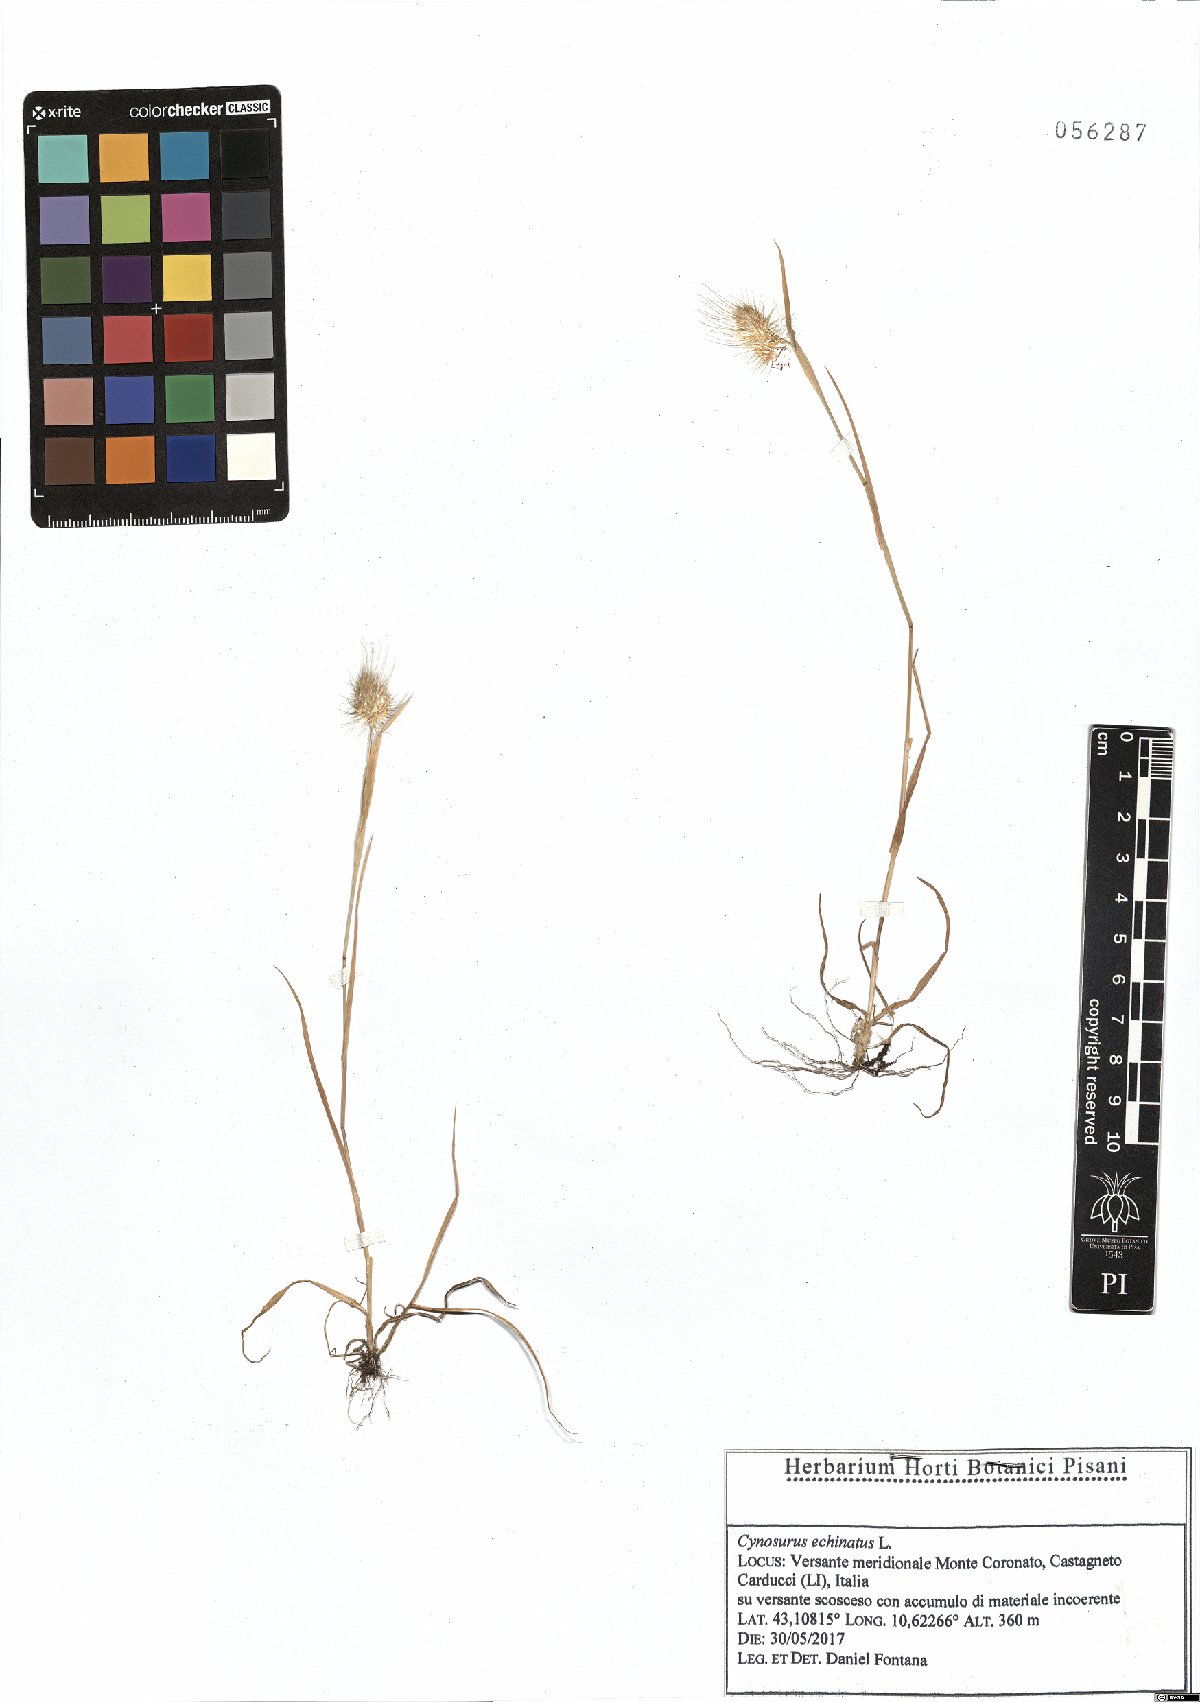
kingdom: Plantae
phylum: Tracheophyta
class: Liliopsida
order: Poales
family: Poaceae
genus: Cynosurus
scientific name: Cynosurus echinatus
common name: Rough dog's-tail
